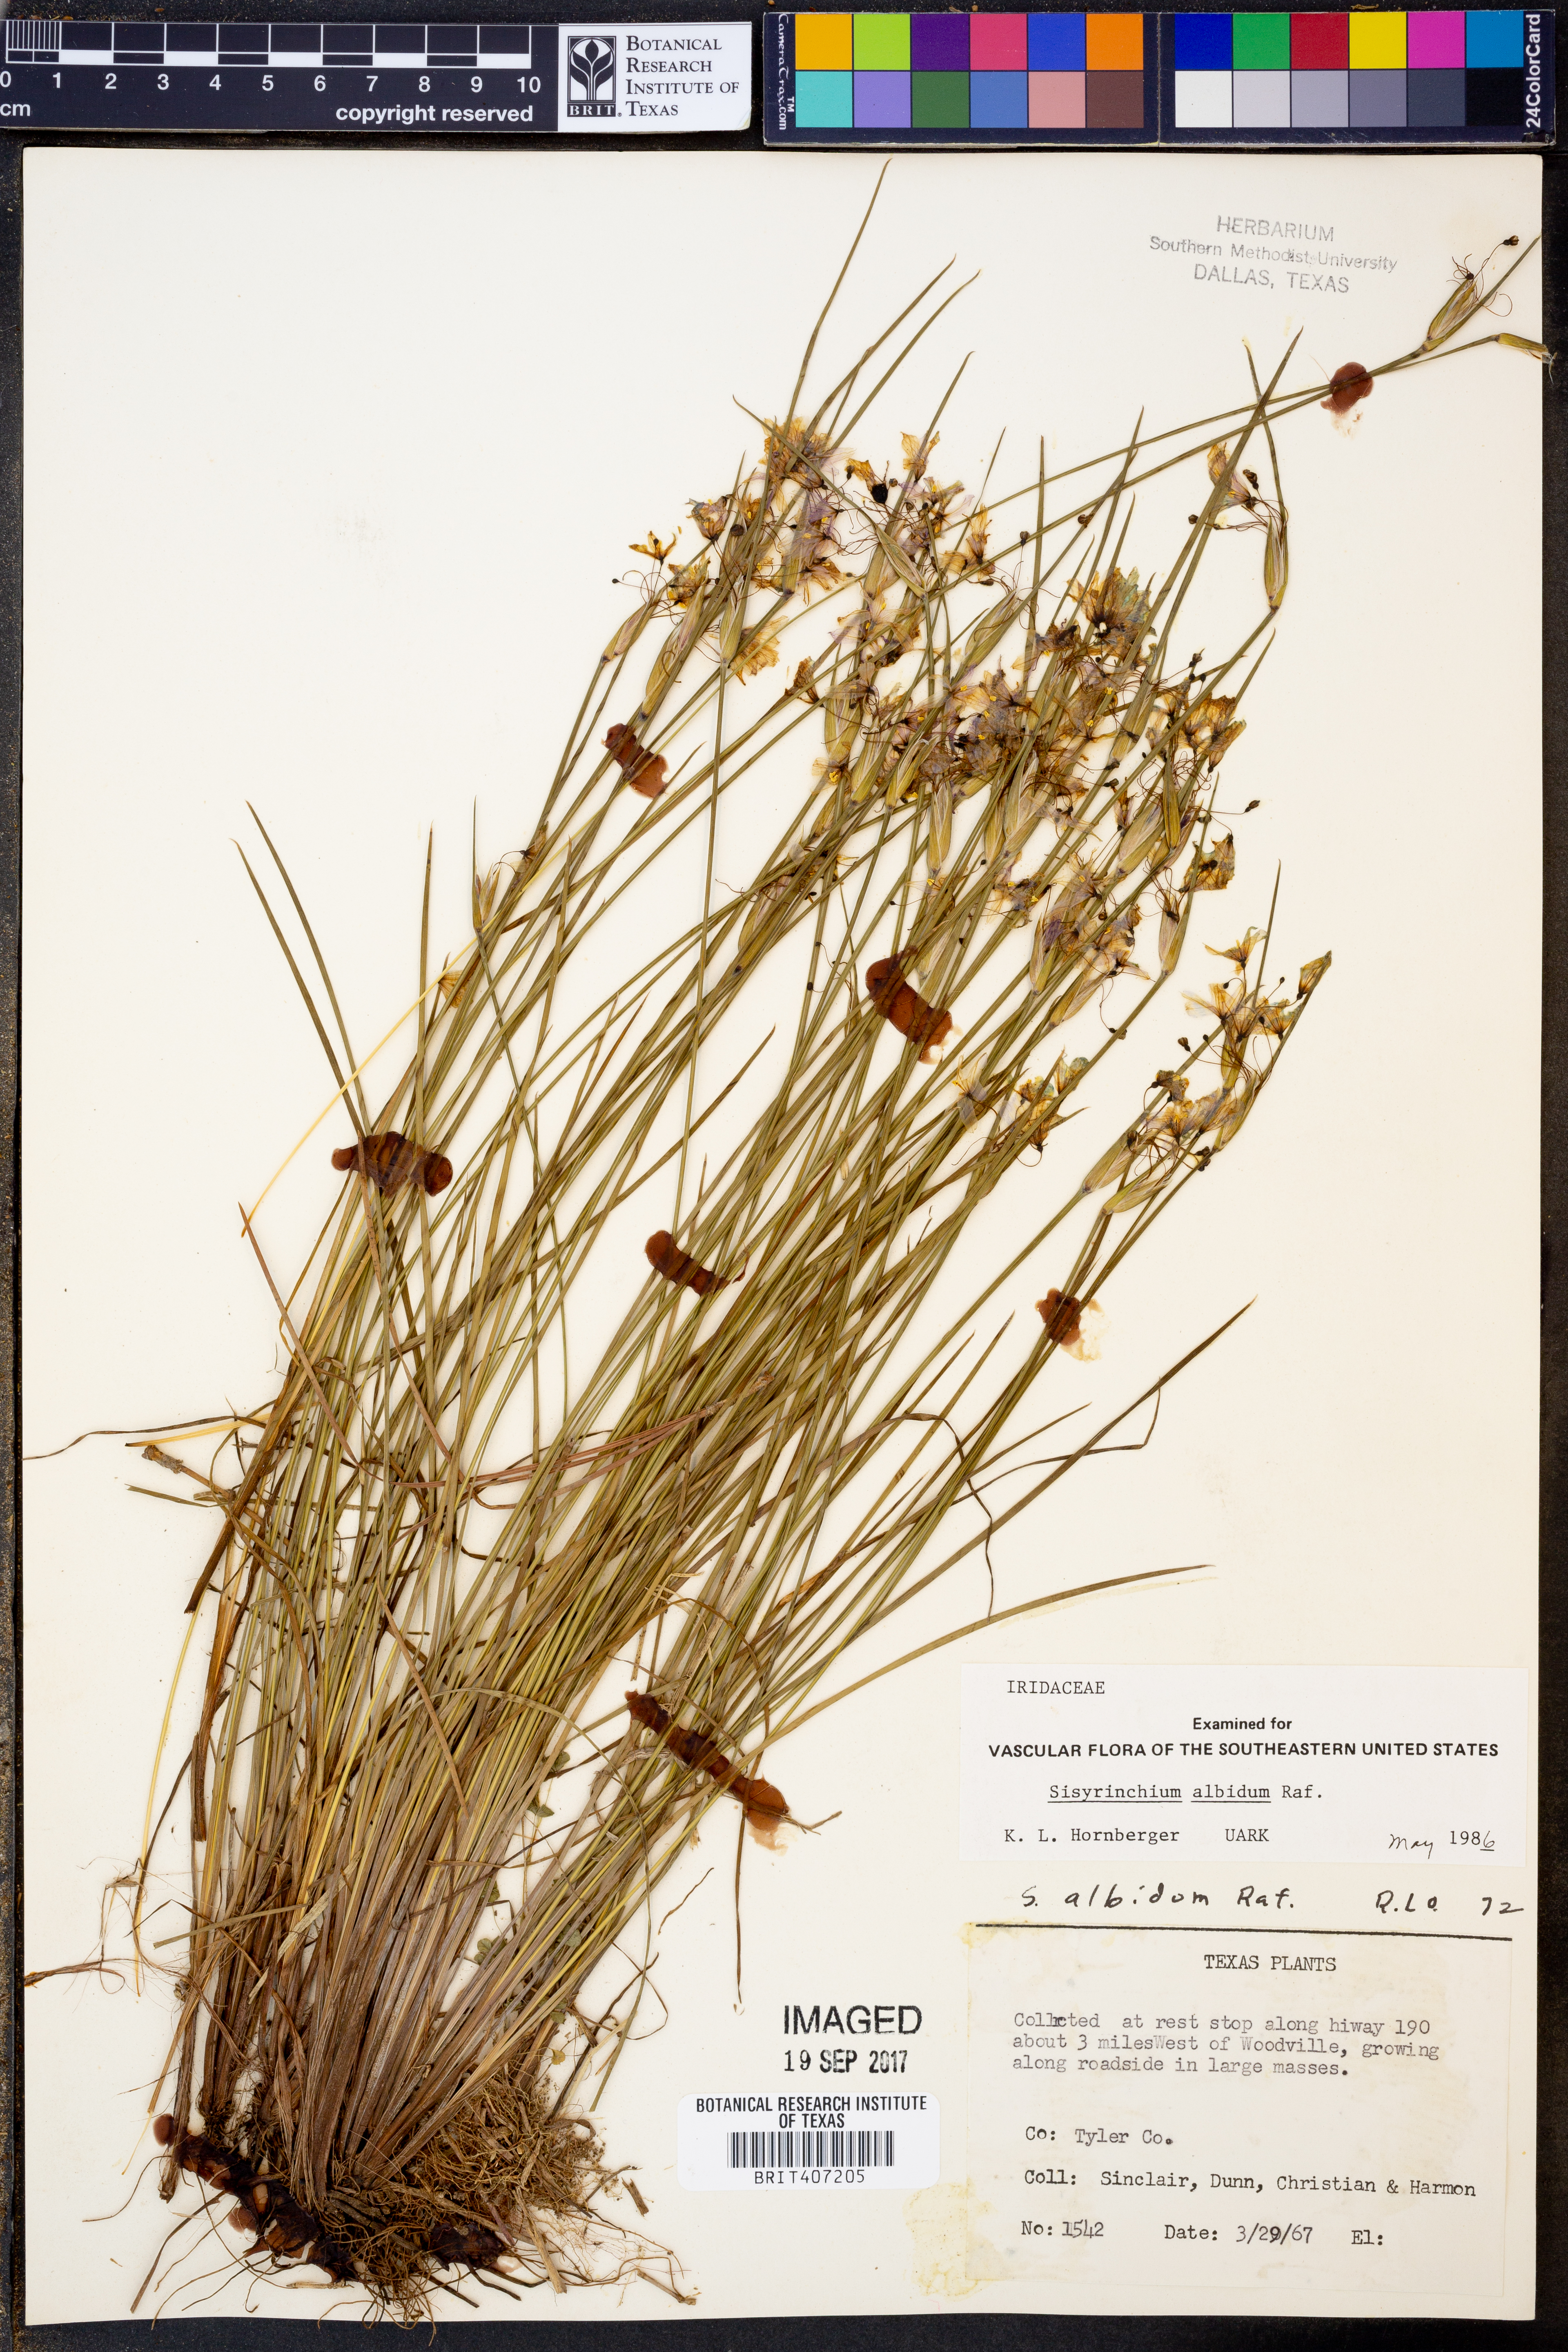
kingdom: Plantae
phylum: Tracheophyta
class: Liliopsida
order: Asparagales
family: Iridaceae
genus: Sisyrinchium
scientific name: Sisyrinchium albidum
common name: Pale blue-eyed-grass
